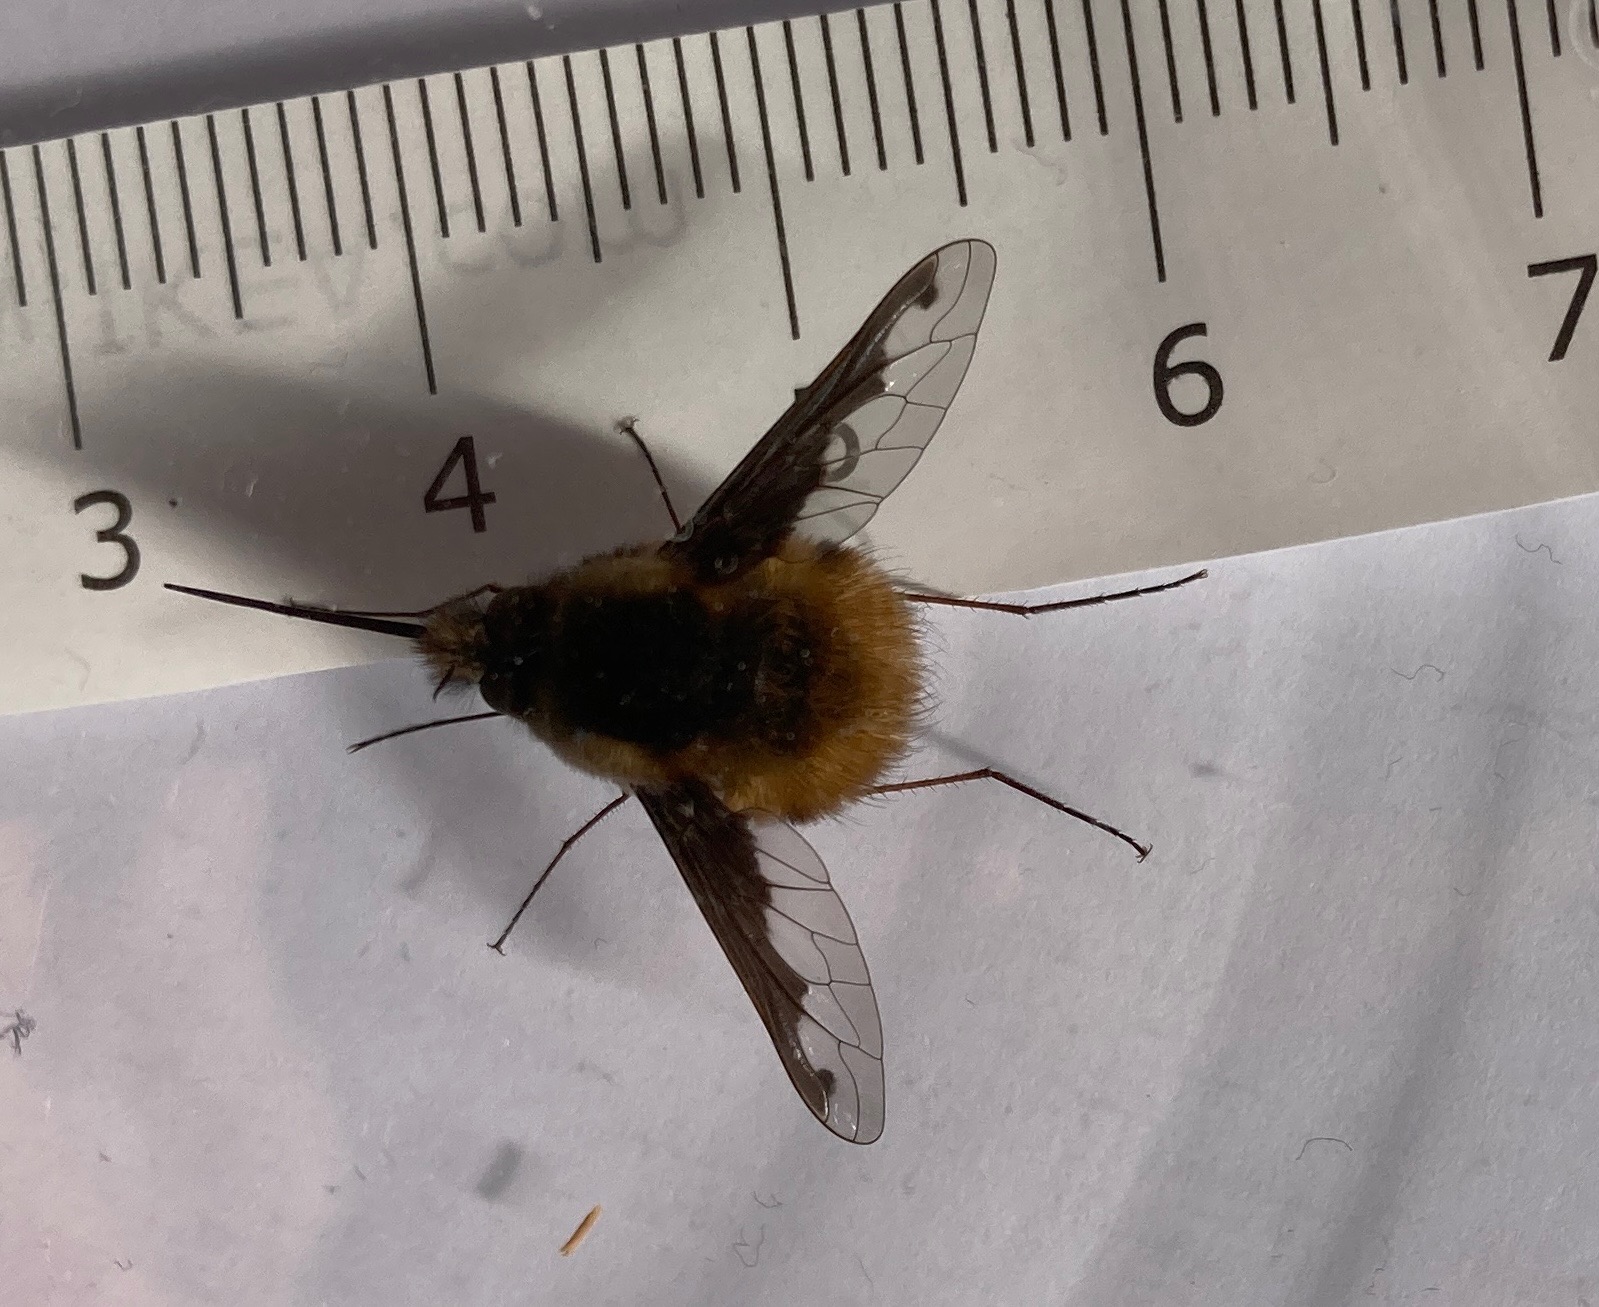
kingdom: Animalia
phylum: Arthropoda
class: Insecta
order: Diptera
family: Bombyliidae
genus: Bombylius
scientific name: Bombylius major
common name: Stor humleflue
